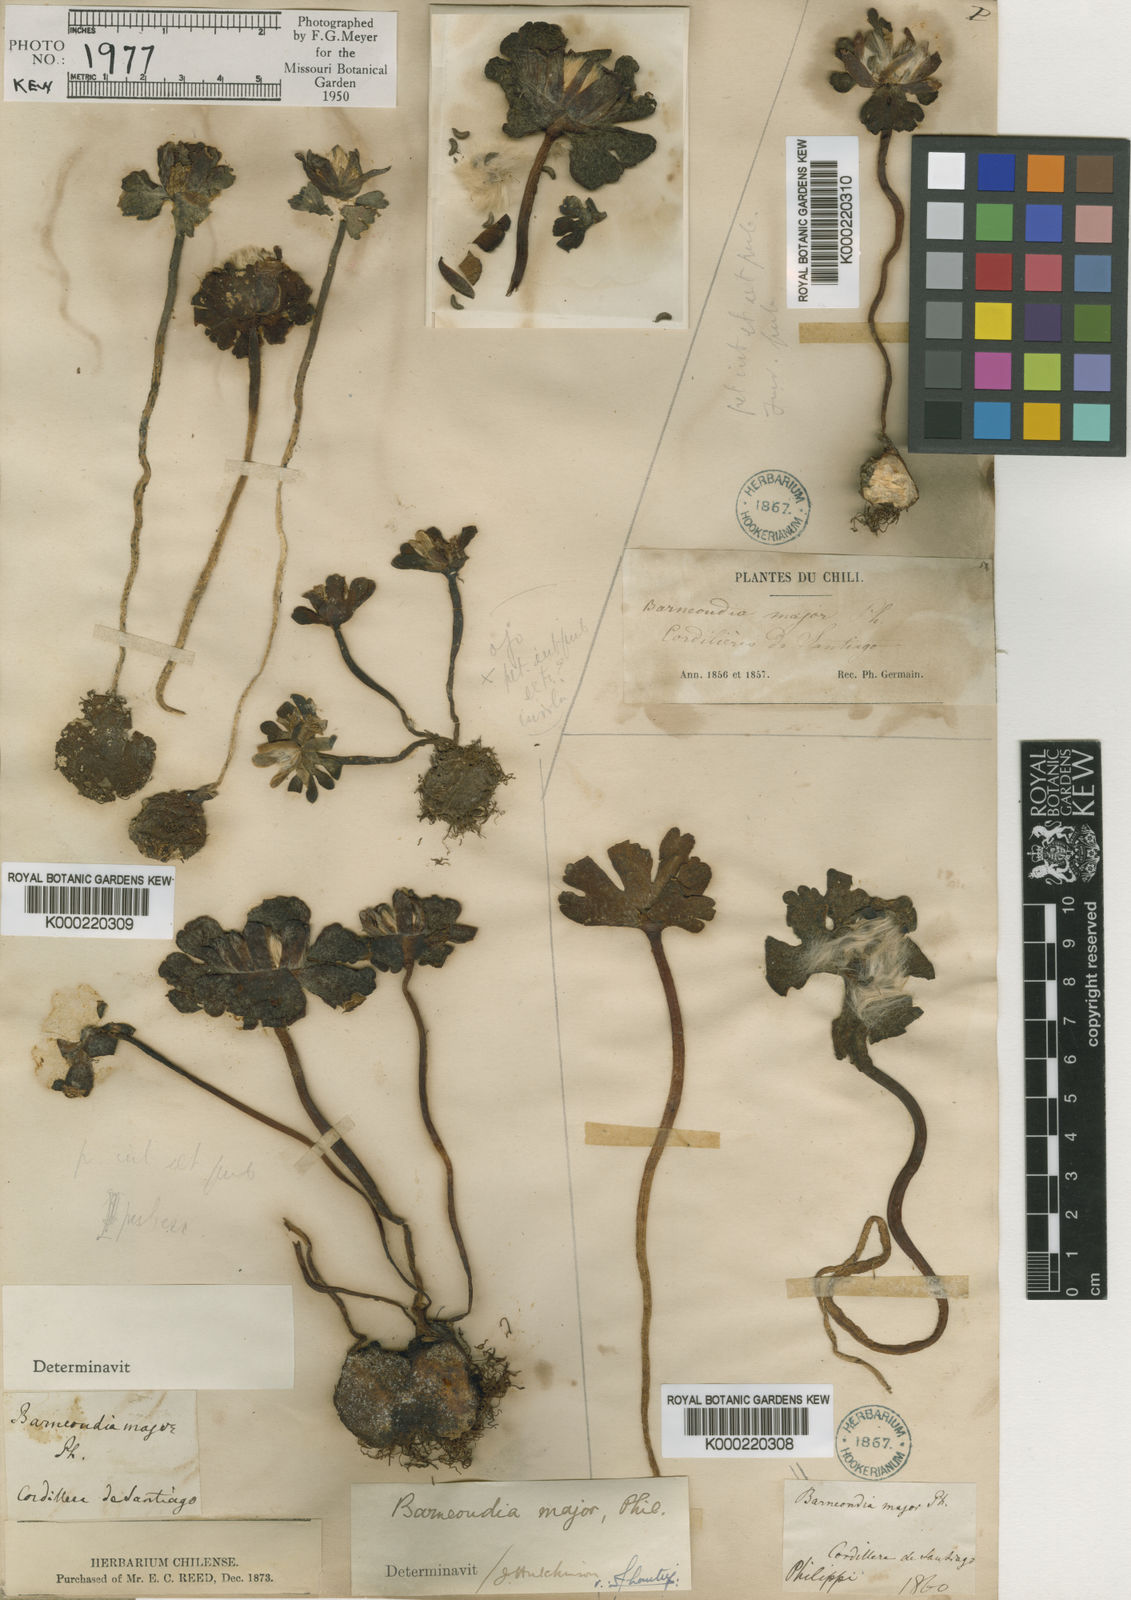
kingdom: Plantae
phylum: Tracheophyta
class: Magnoliopsida
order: Ranunculales
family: Ranunculaceae
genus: Knowltonia
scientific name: Knowltonia major
